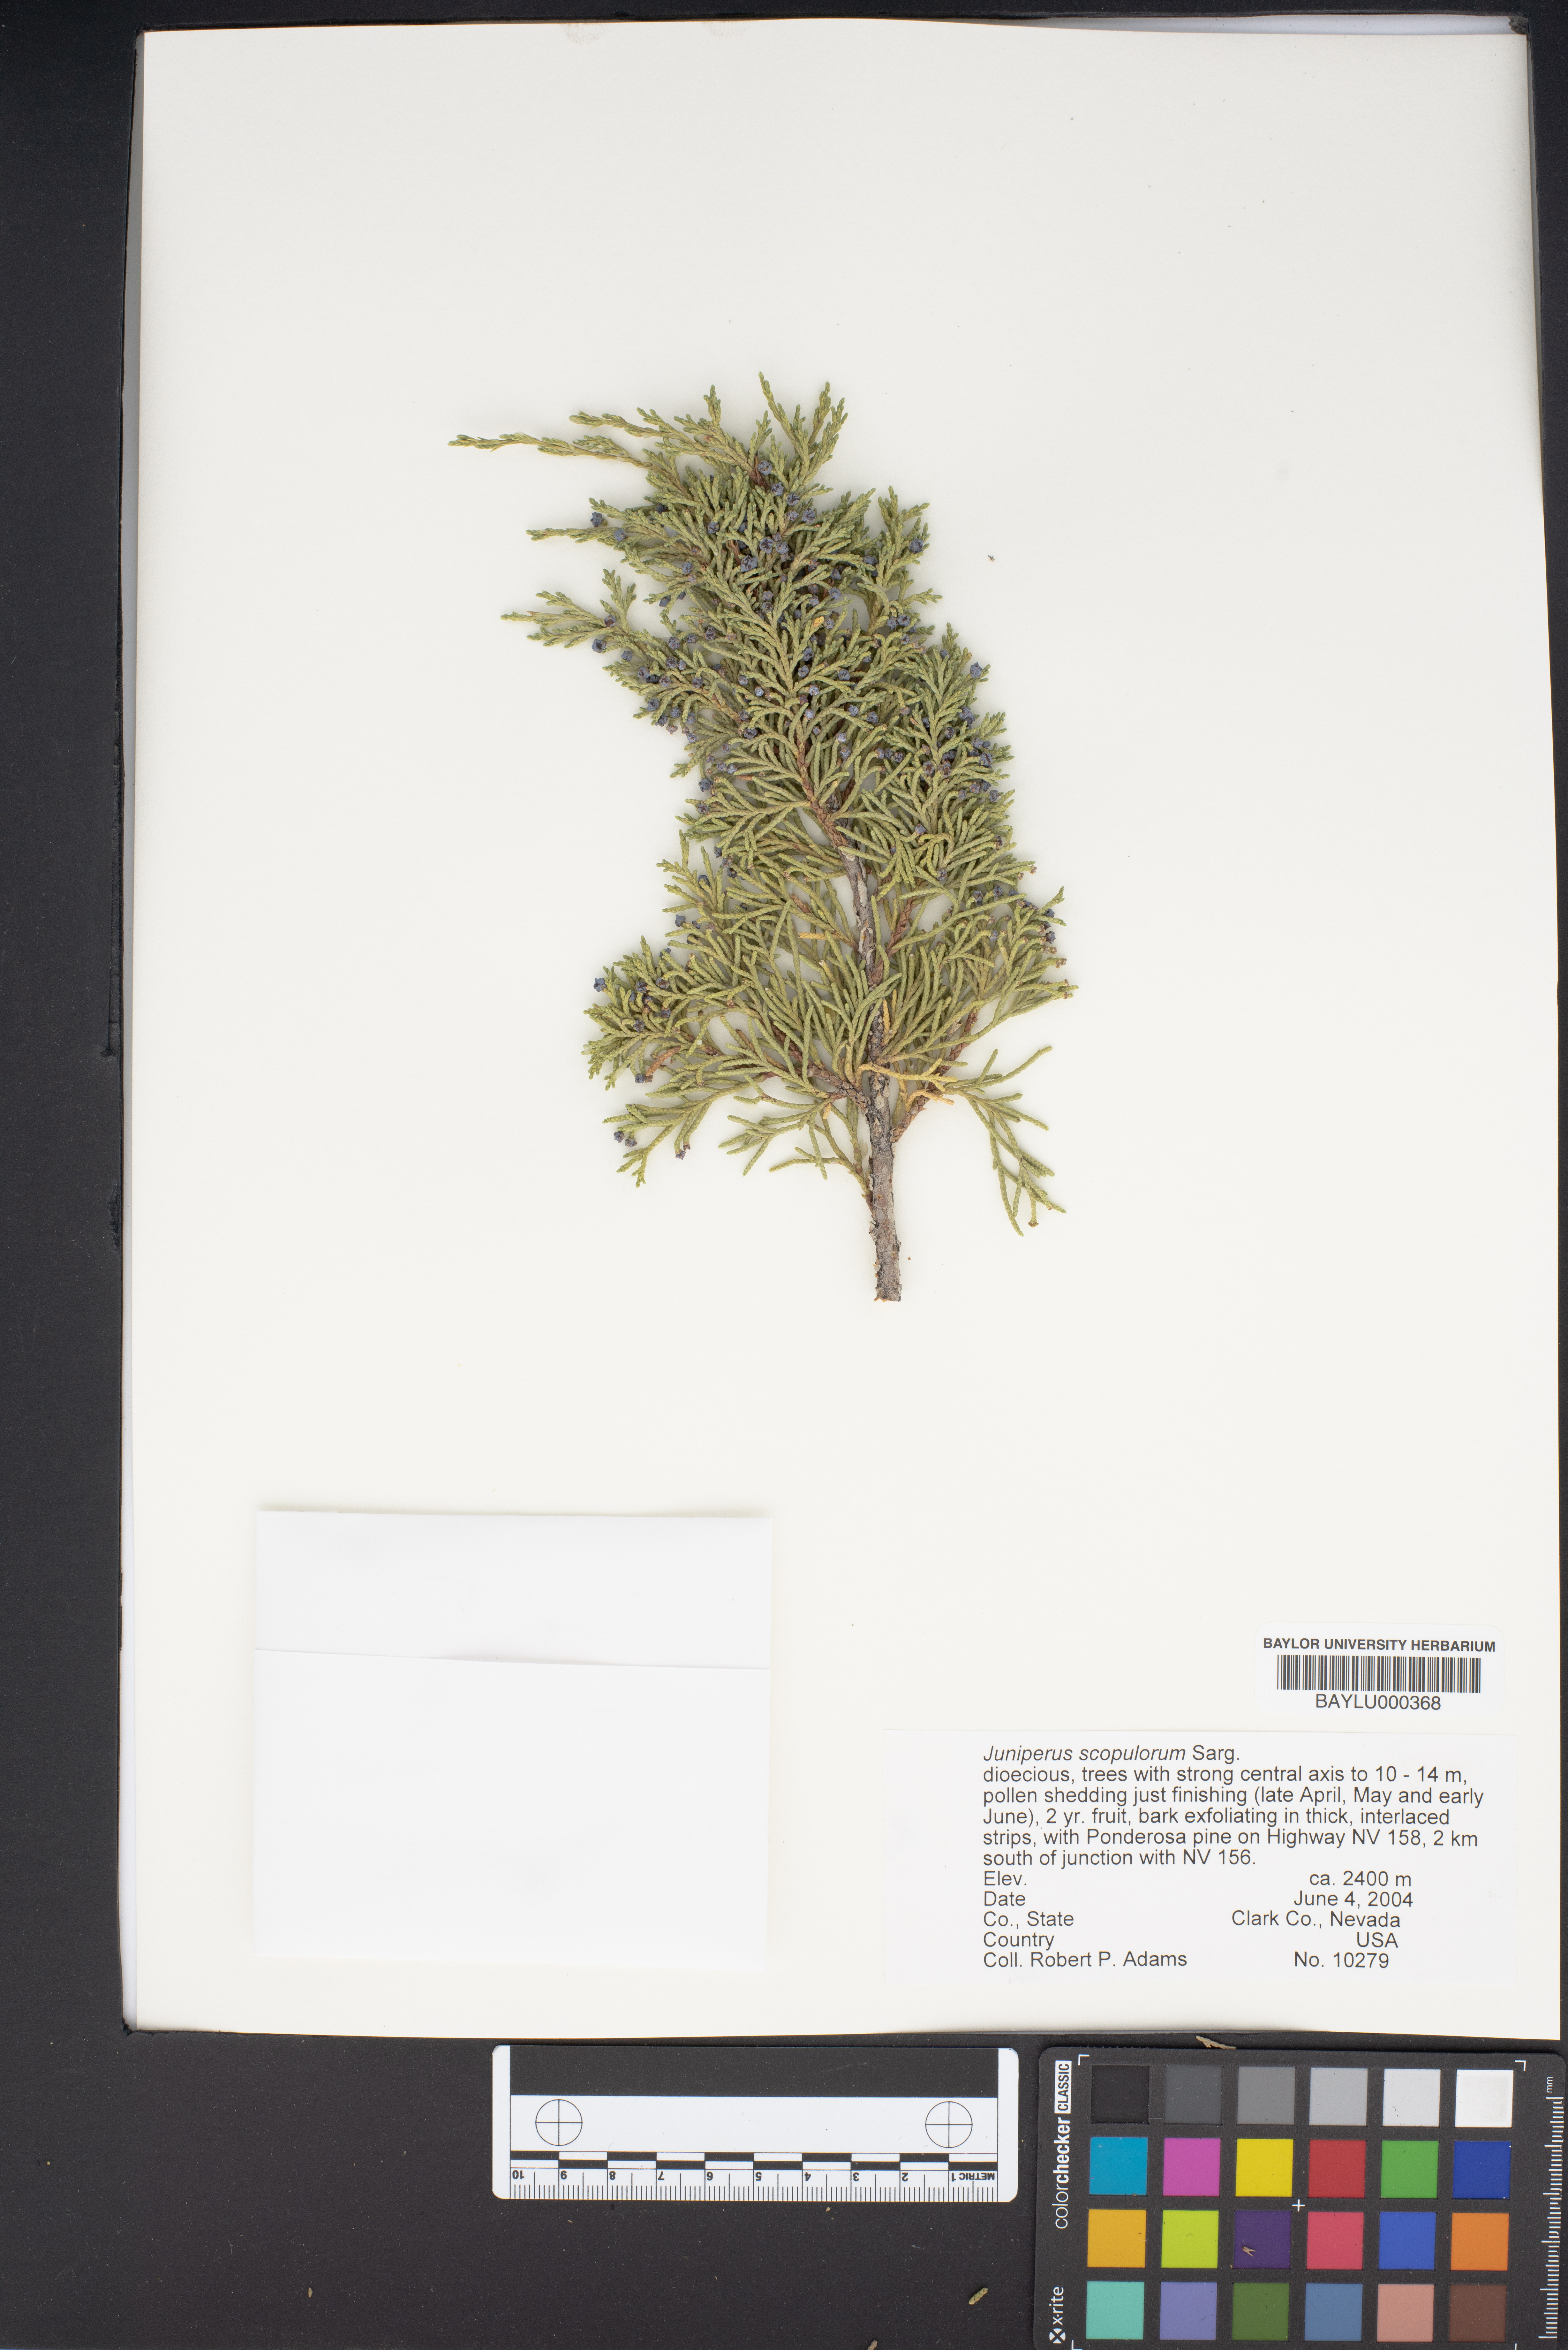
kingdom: Plantae
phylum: Tracheophyta
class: Pinopsida
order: Pinales
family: Cupressaceae
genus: Juniperus
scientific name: Juniperus scopulorum
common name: Rocky mountain juniper
